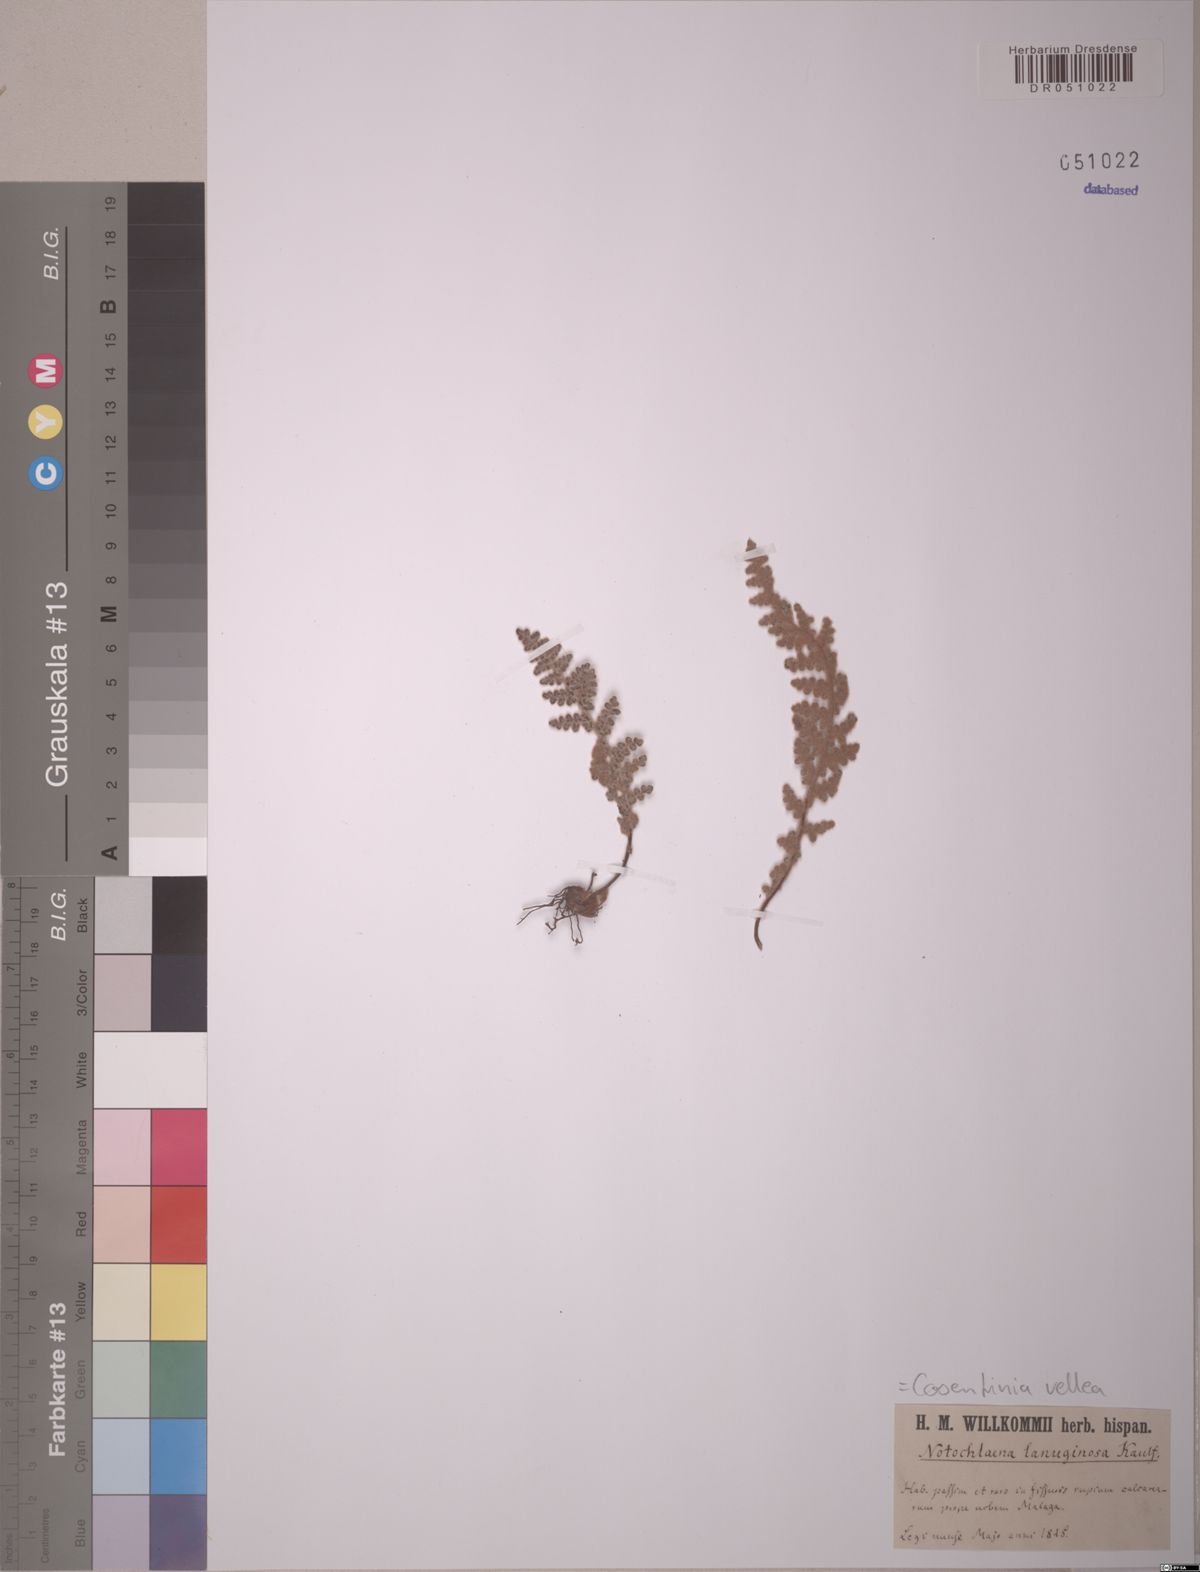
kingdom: Plantae
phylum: Tracheophyta
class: Polypodiopsida
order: Polypodiales
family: Pteridaceae
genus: Cosentinia
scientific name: Cosentinia vellea
